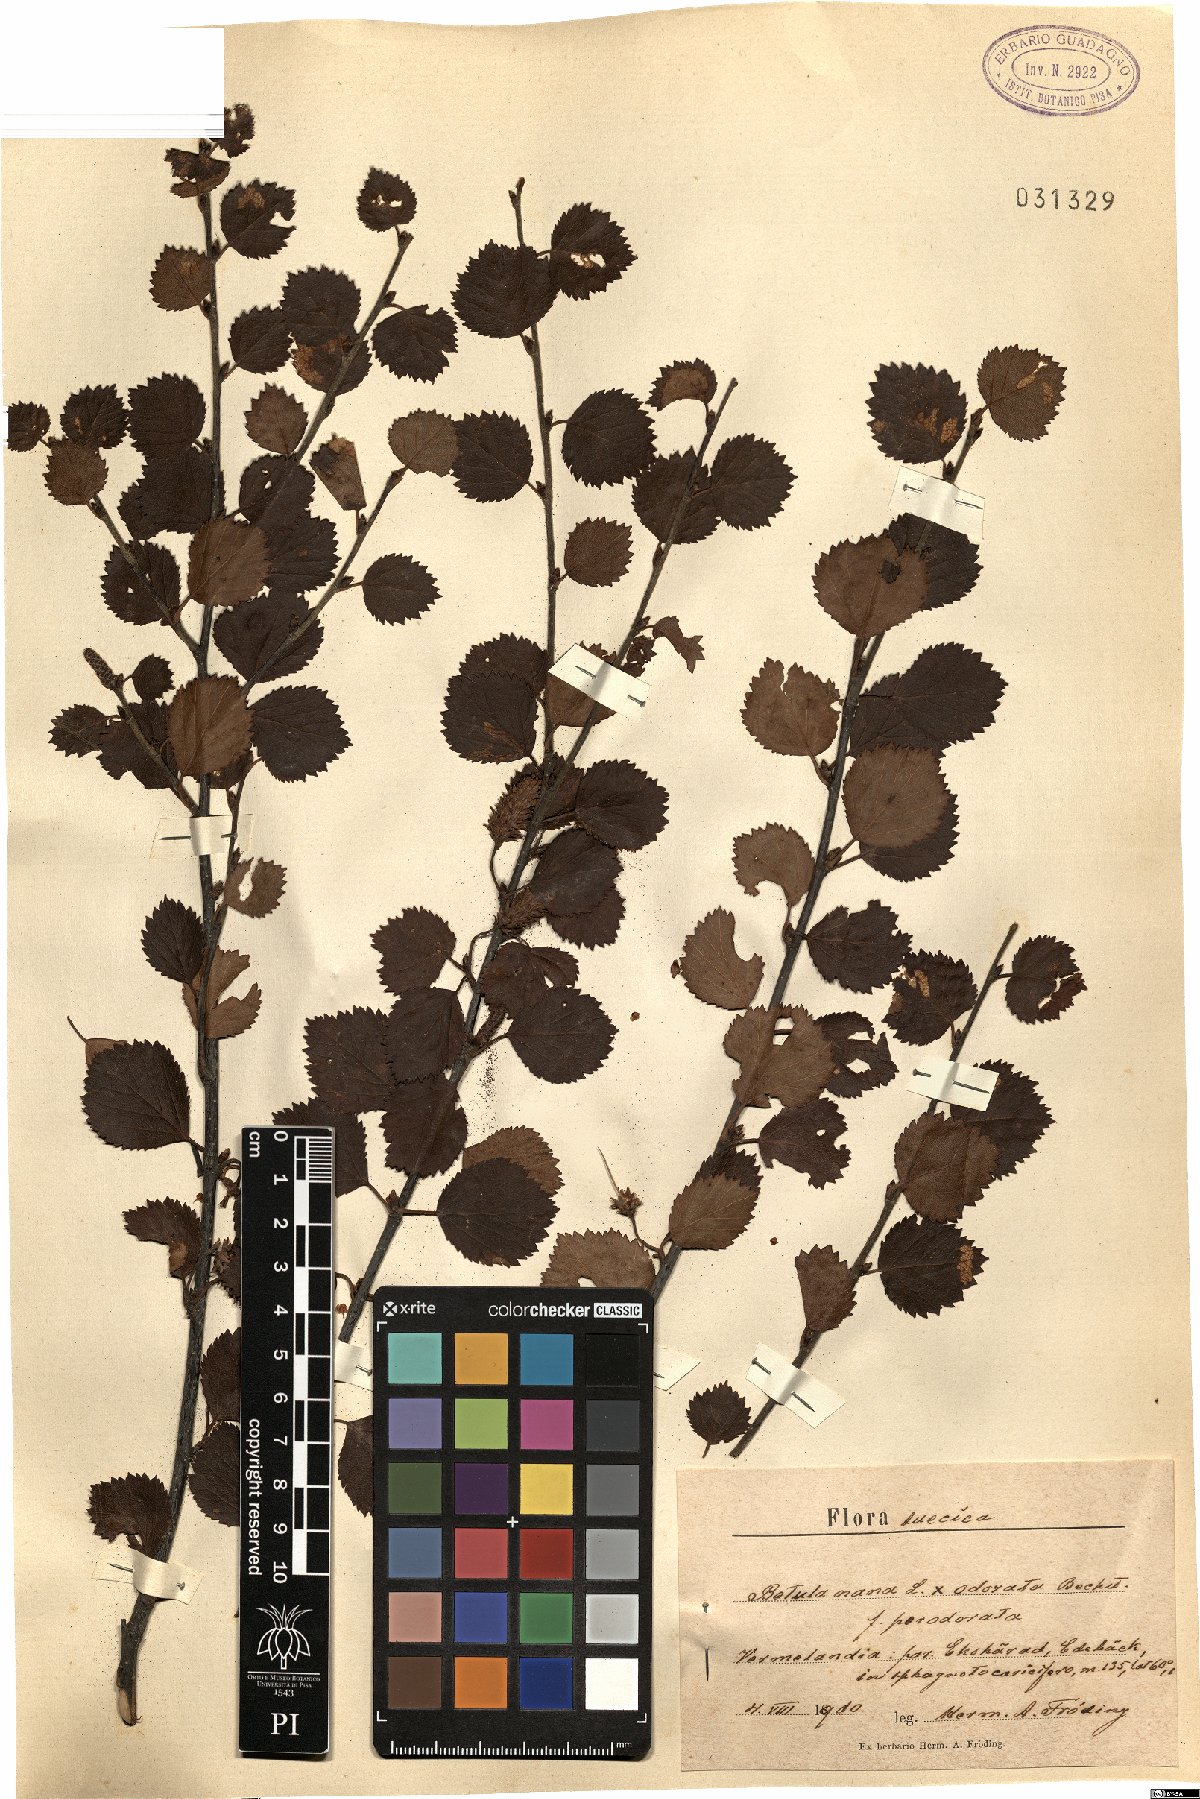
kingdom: Plantae
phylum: Tracheophyta
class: Magnoliopsida
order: Fagales
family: Betulaceae
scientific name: Betulaceae
